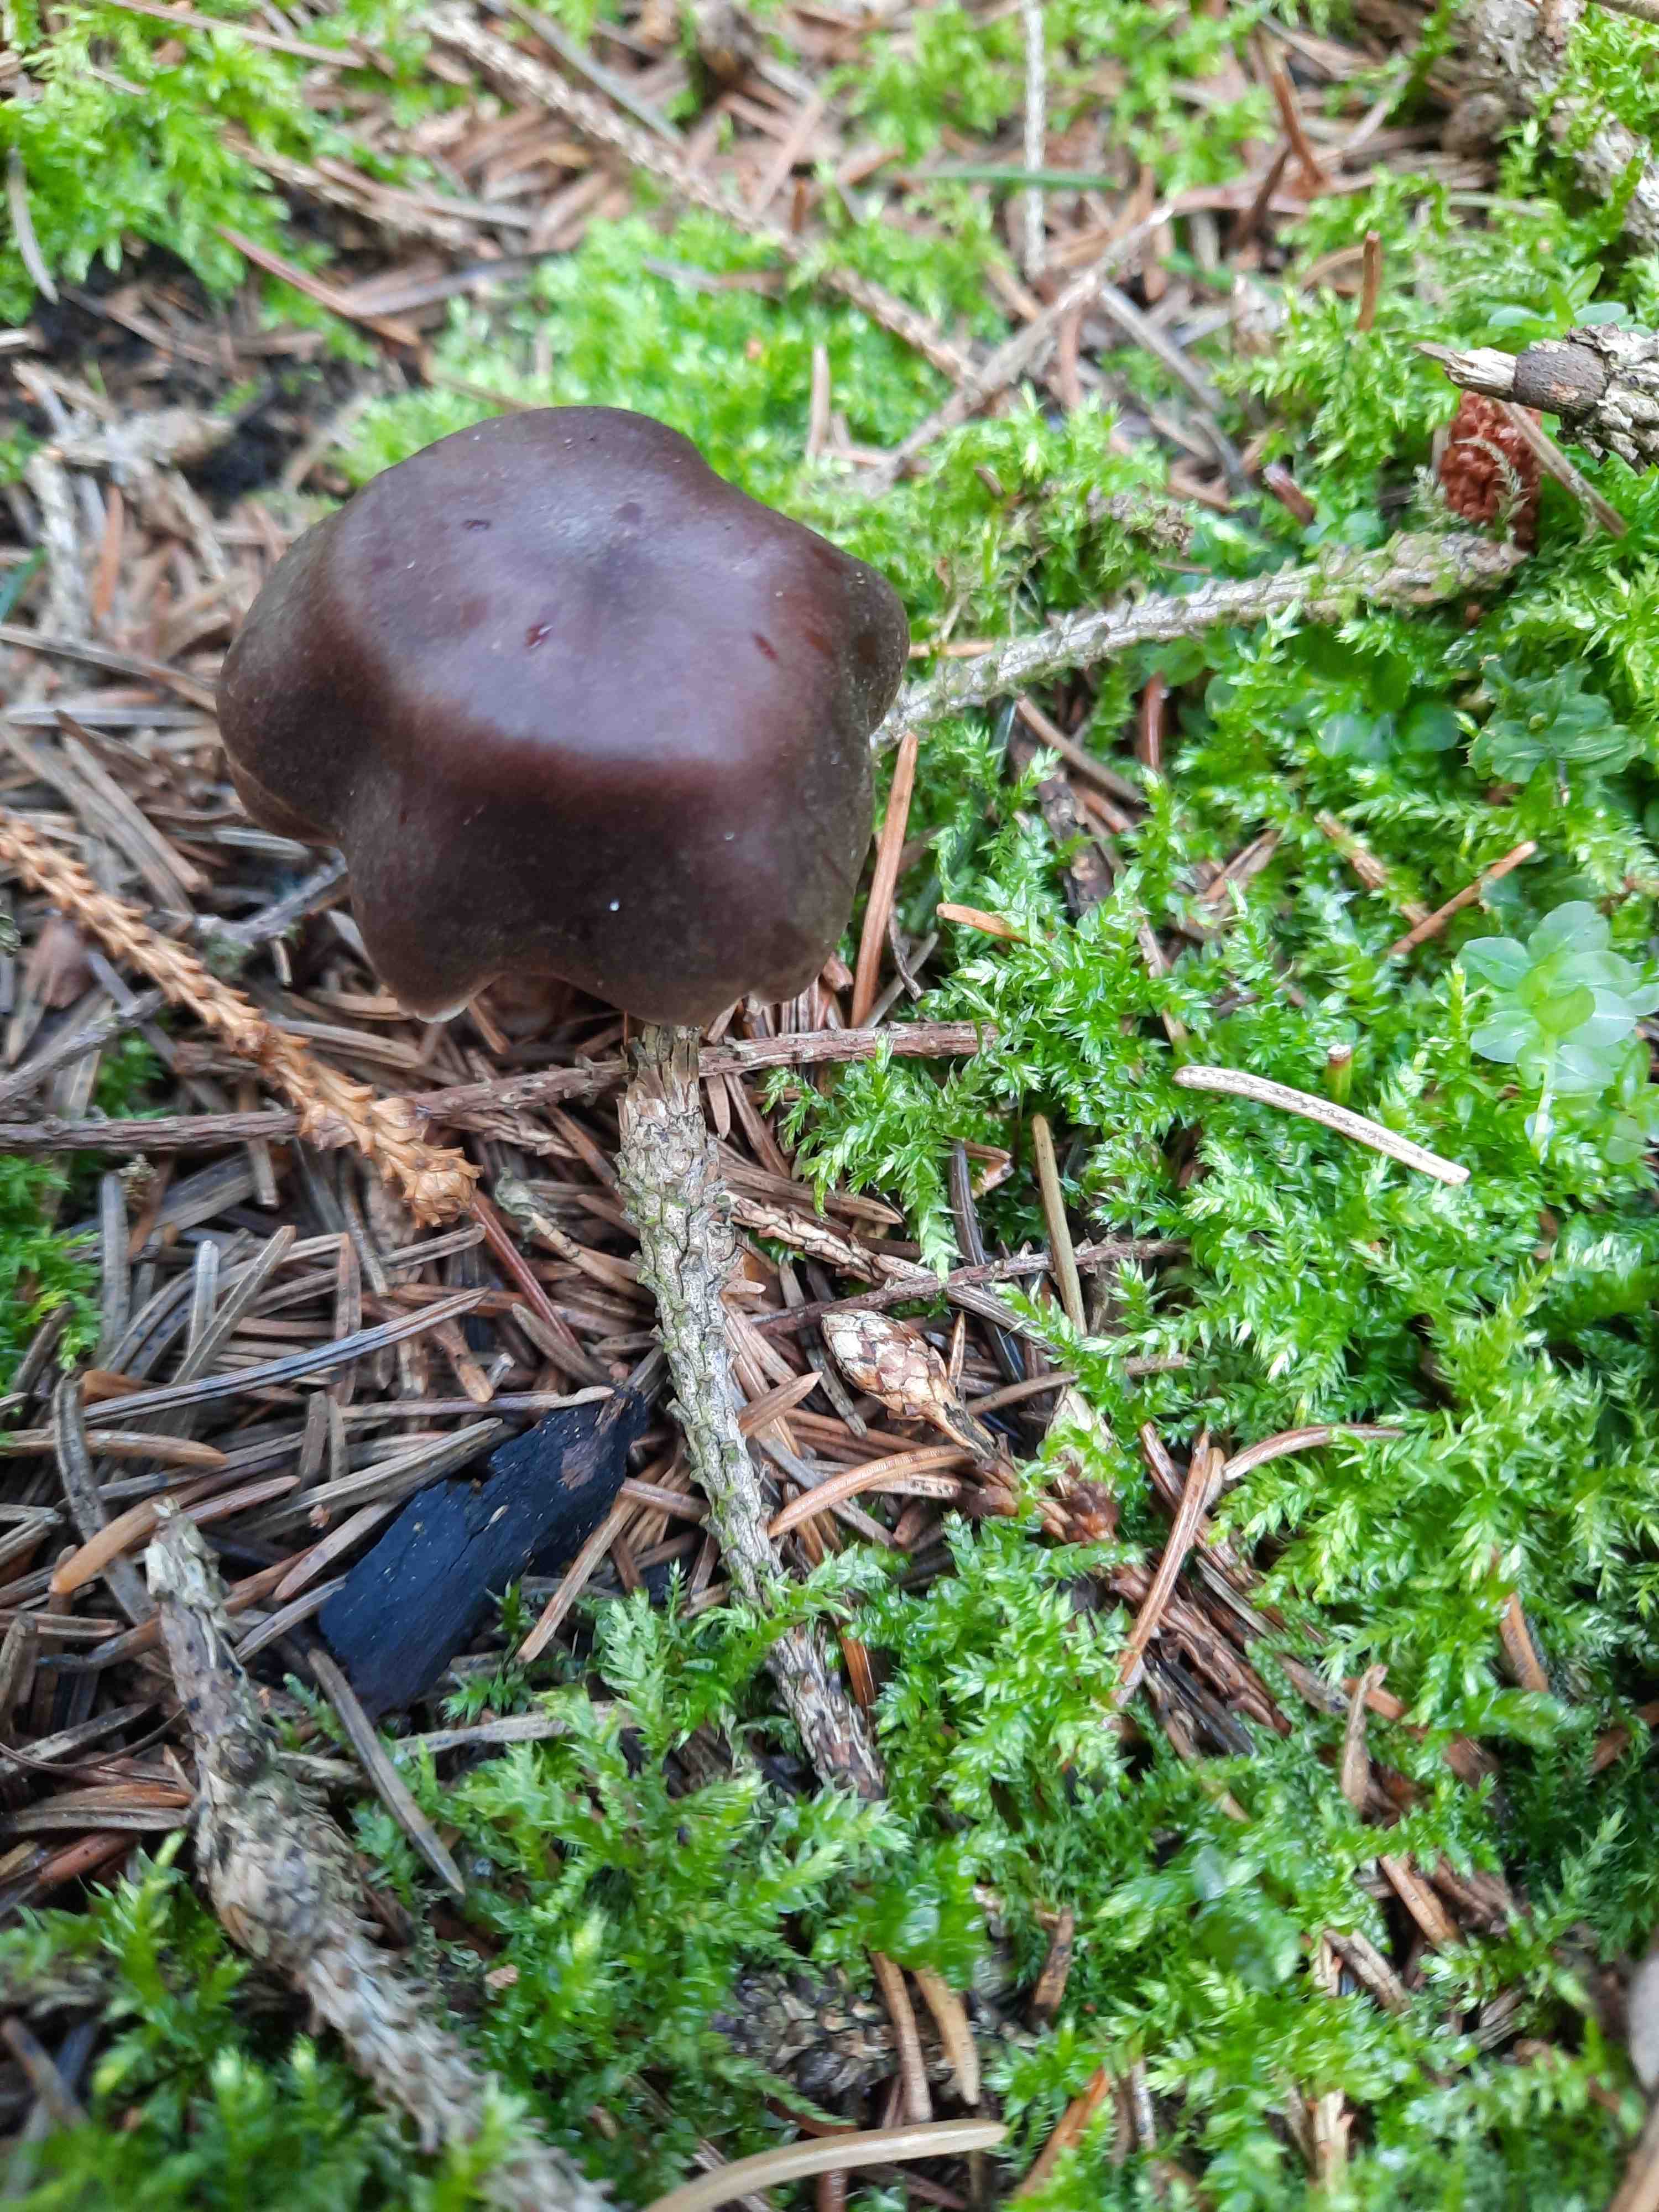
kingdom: Fungi
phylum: Basidiomycota
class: Agaricomycetes
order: Agaricales
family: Cortinariaceae
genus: Cortinarius
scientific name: Cortinarius
